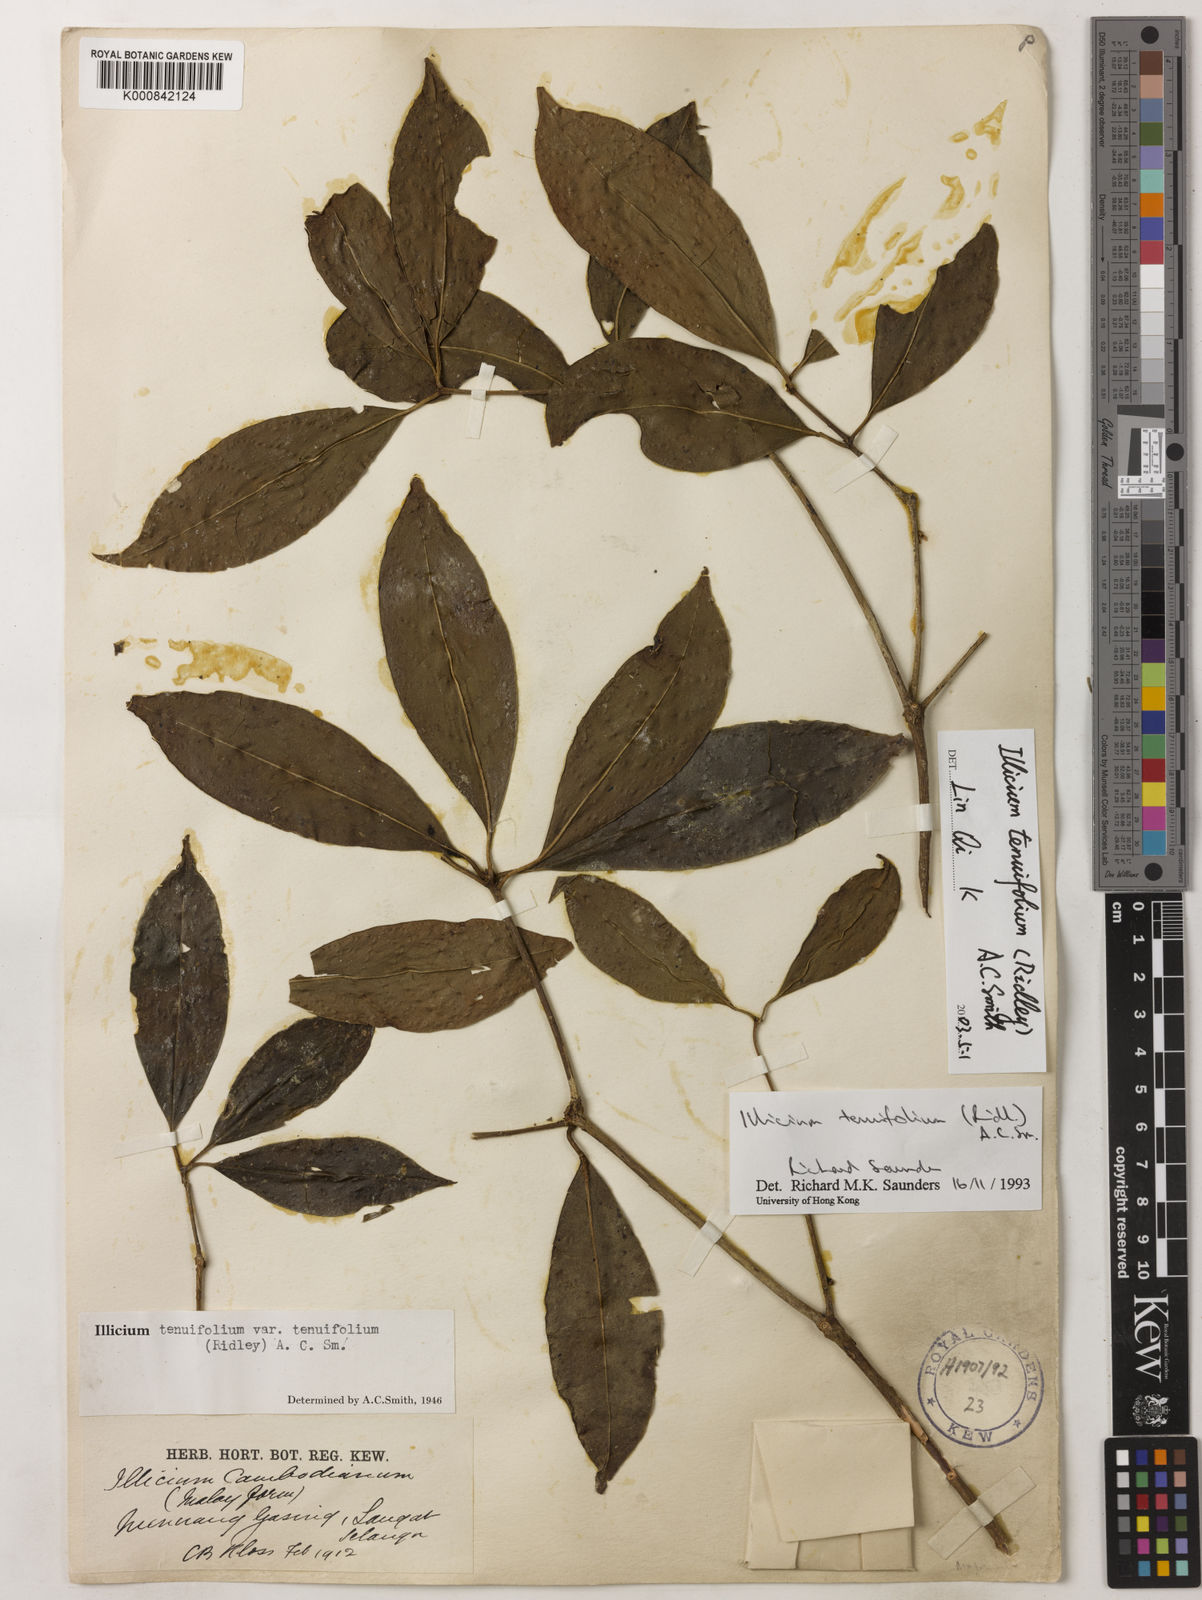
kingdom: Plantae
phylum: Tracheophyta
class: Magnoliopsida
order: Austrobaileyales
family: Schisandraceae
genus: Illicium
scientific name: Illicium tenuifolium
